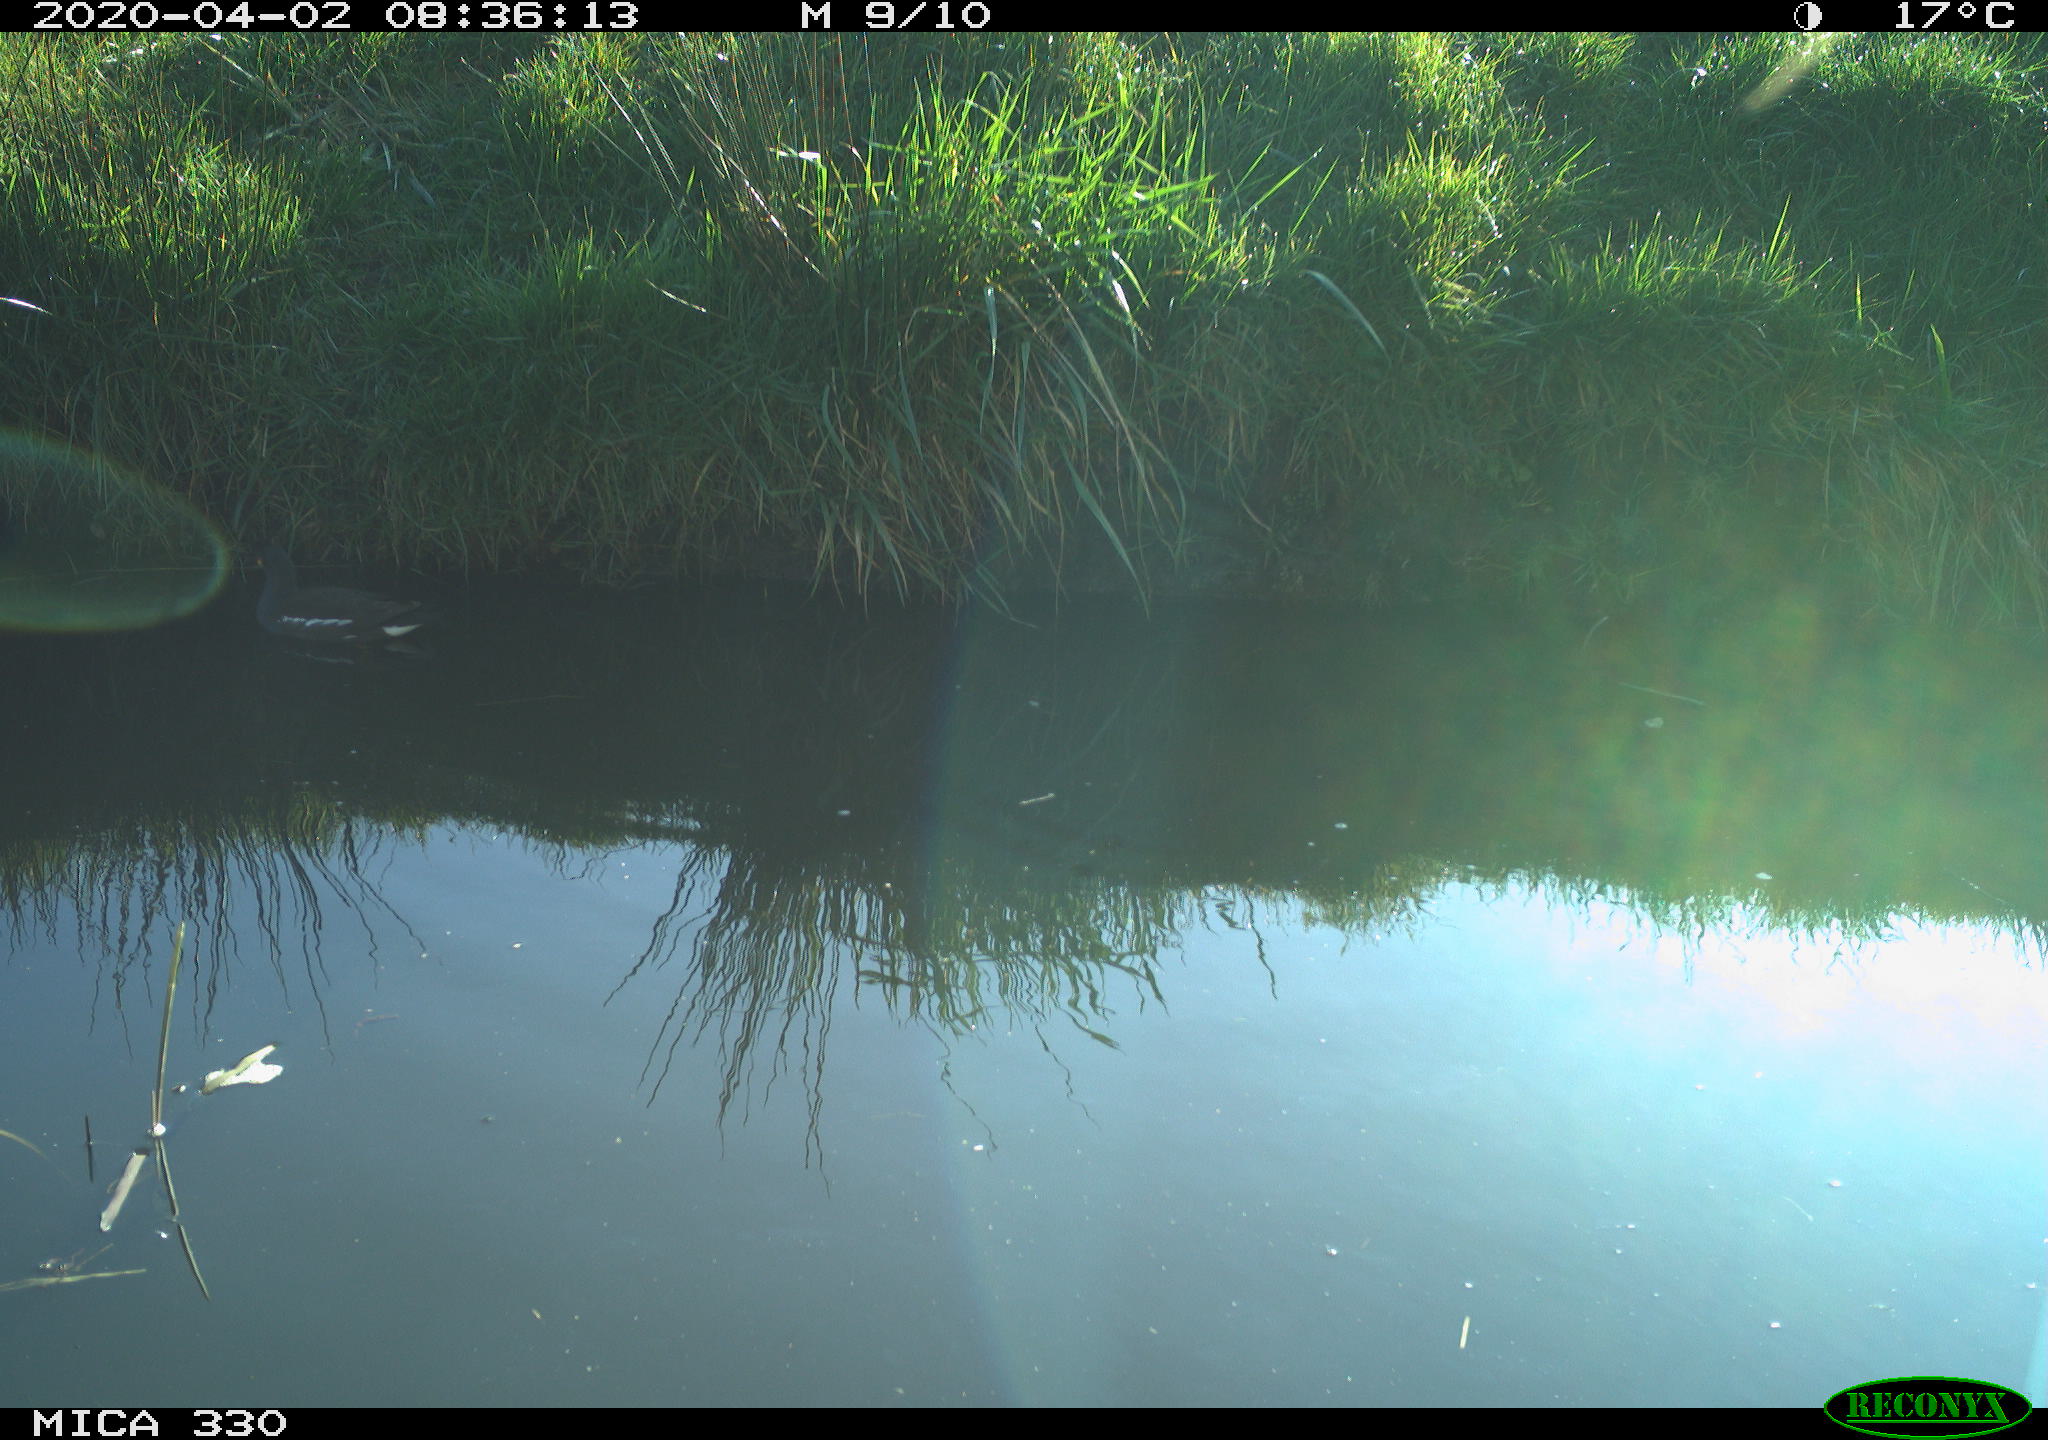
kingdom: Animalia
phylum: Chordata
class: Aves
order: Gruiformes
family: Rallidae
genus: Gallinula
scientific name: Gallinula chloropus
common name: Common moorhen
